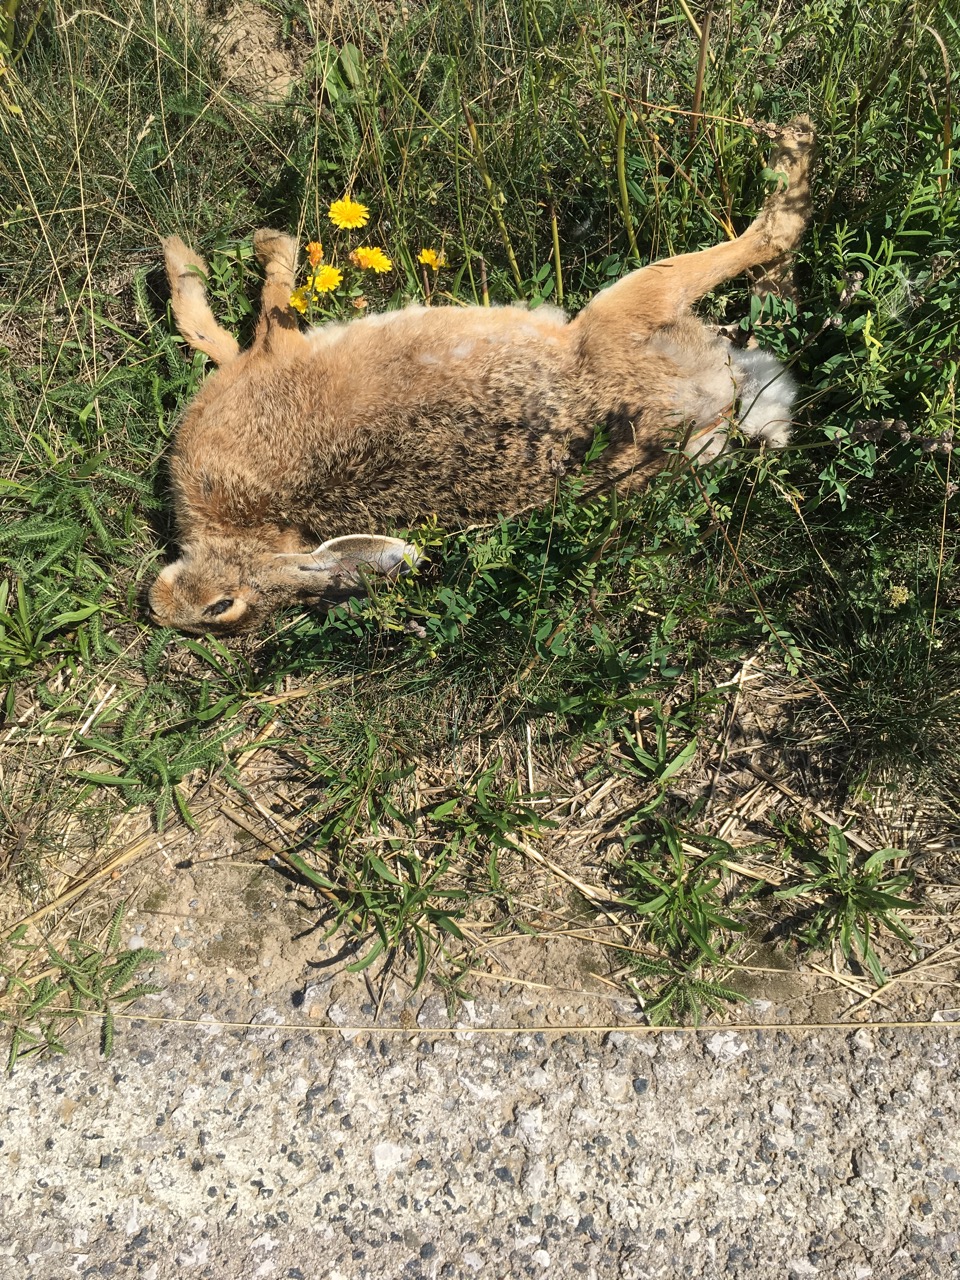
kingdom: Animalia
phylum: Chordata
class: Mammalia
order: Lagomorpha
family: Leporidae
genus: Lepus
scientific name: Lepus europaeus
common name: European hare
